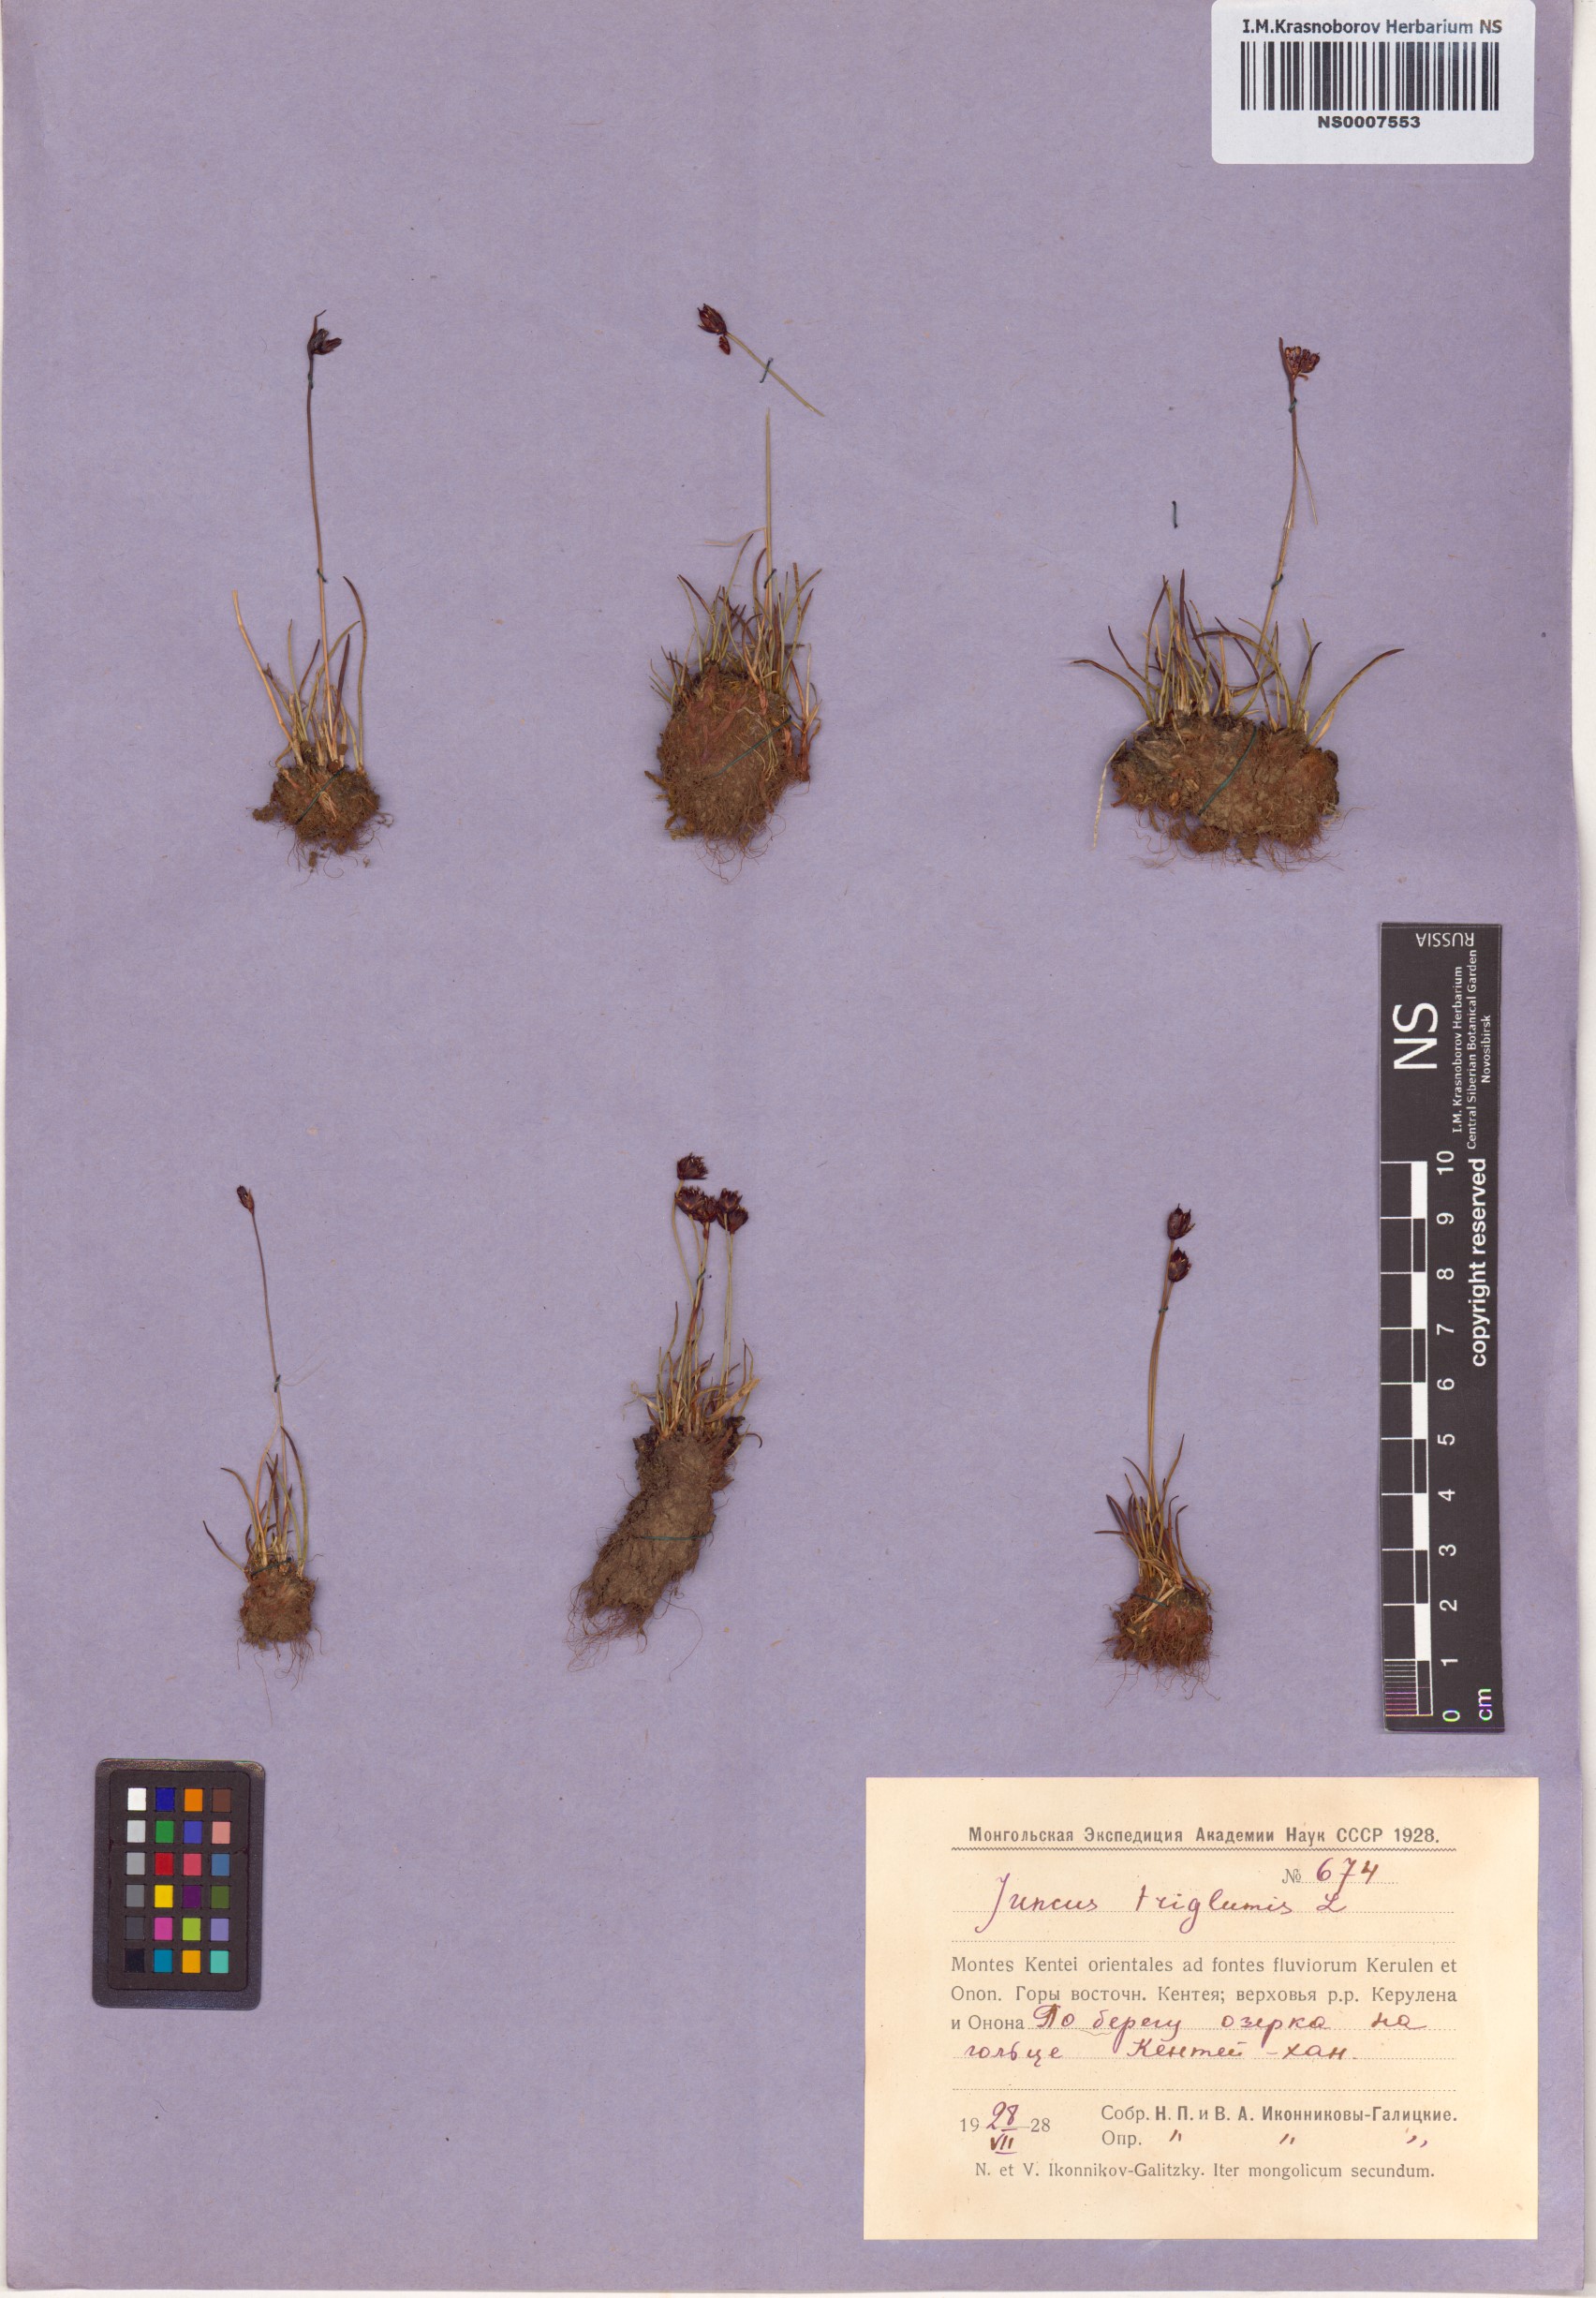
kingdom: Plantae
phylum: Tracheophyta
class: Liliopsida
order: Poales
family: Juncaceae
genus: Juncus
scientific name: Juncus triglumis
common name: Three-flowered rush
